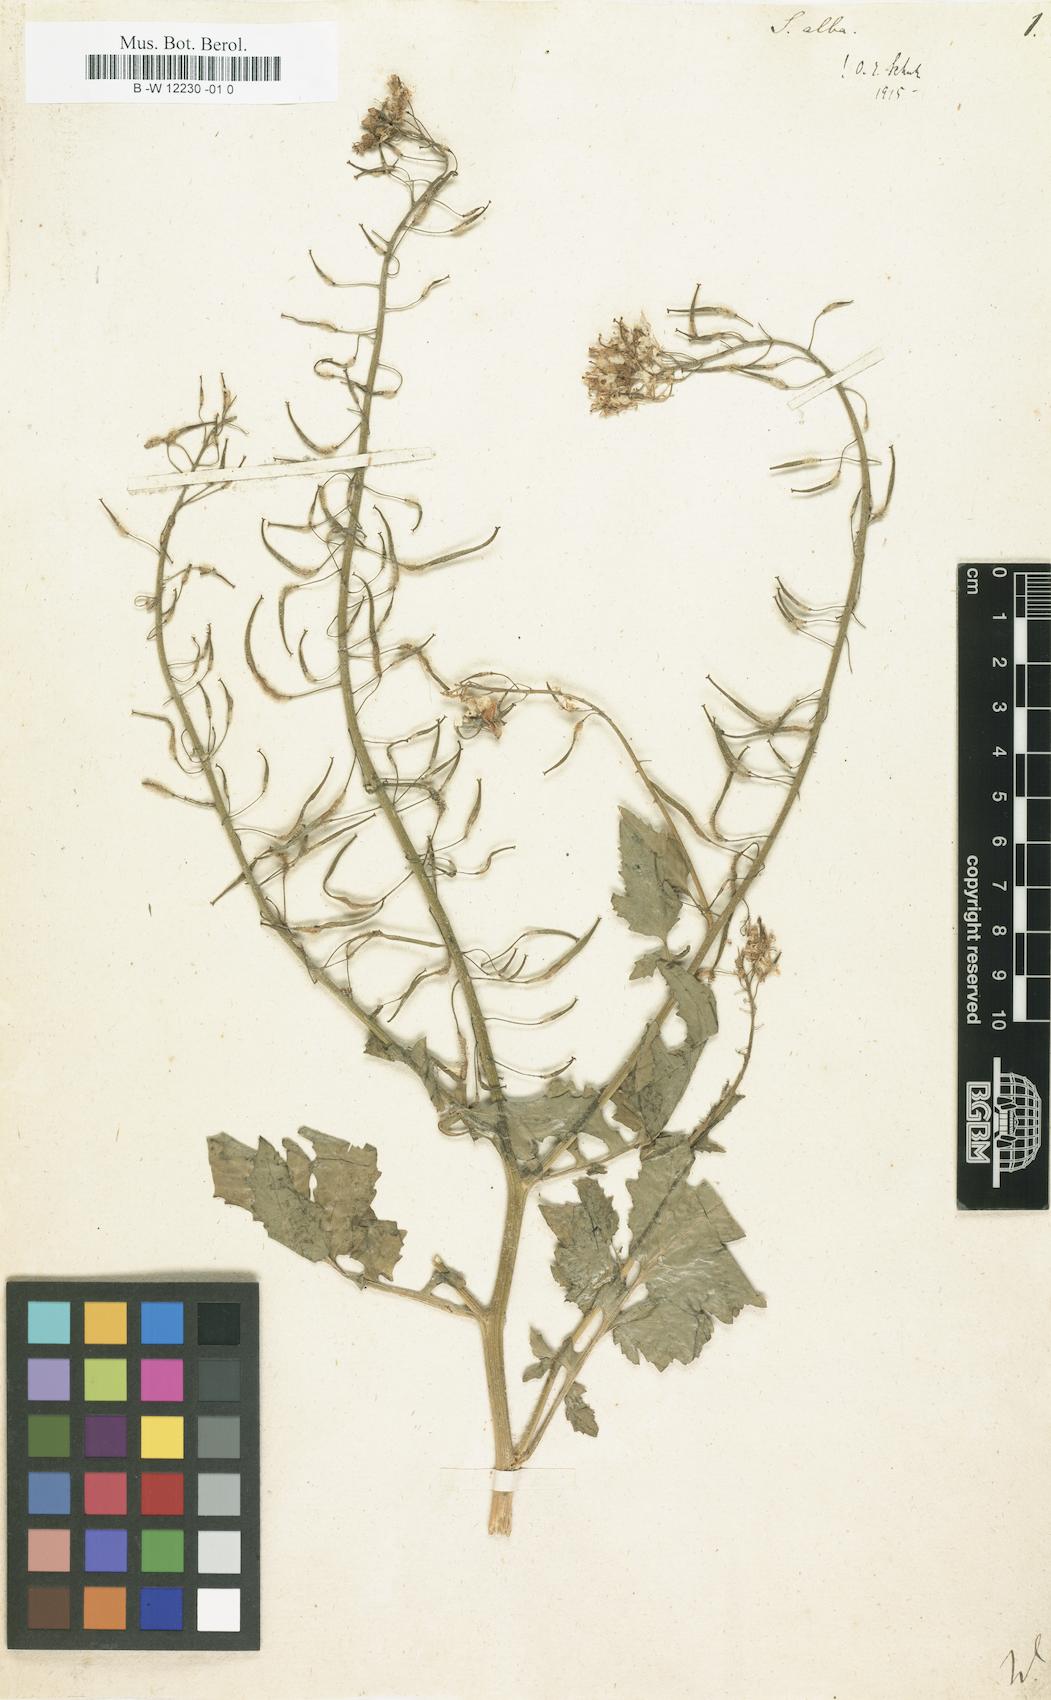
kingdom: Plantae
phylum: Tracheophyta
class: Magnoliopsida
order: Brassicales
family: Brassicaceae
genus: Sinapis
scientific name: Sinapis alba
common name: White mustard
